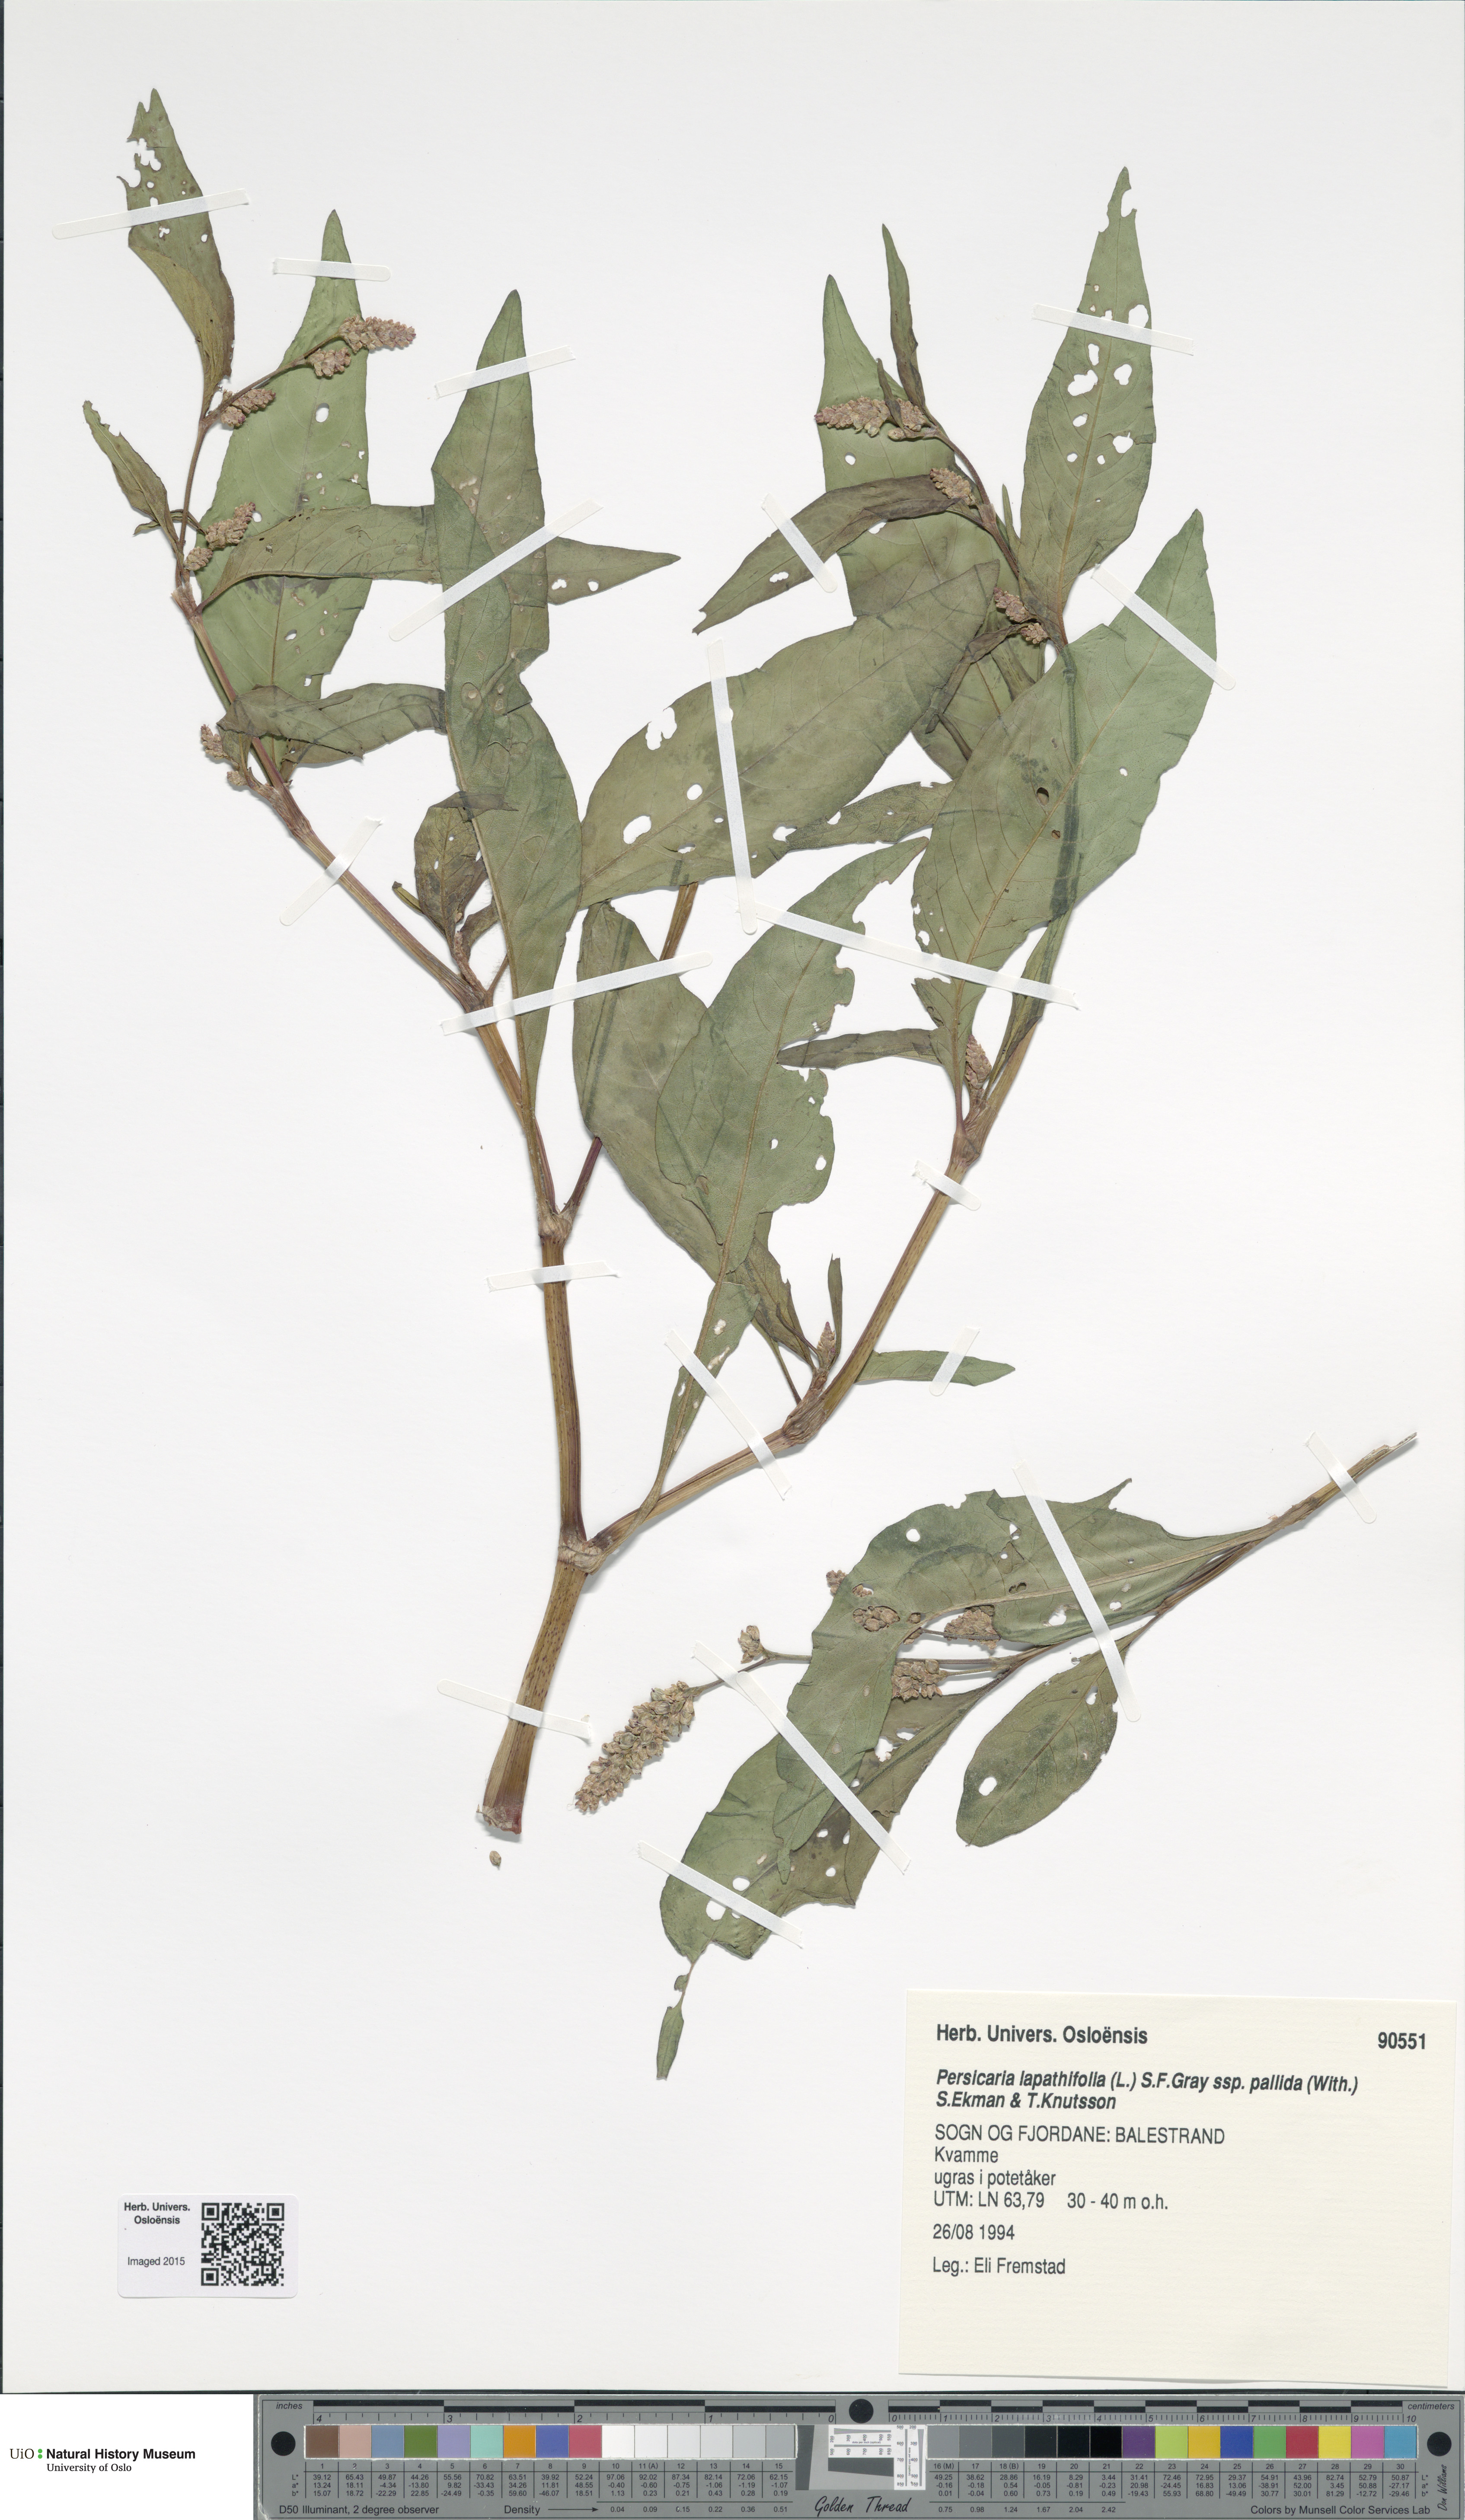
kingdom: Plantae
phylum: Tracheophyta
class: Magnoliopsida
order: Caryophyllales
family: Polygonaceae
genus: Persicaria
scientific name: Persicaria lapathifolia
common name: Curlytop knotweed
